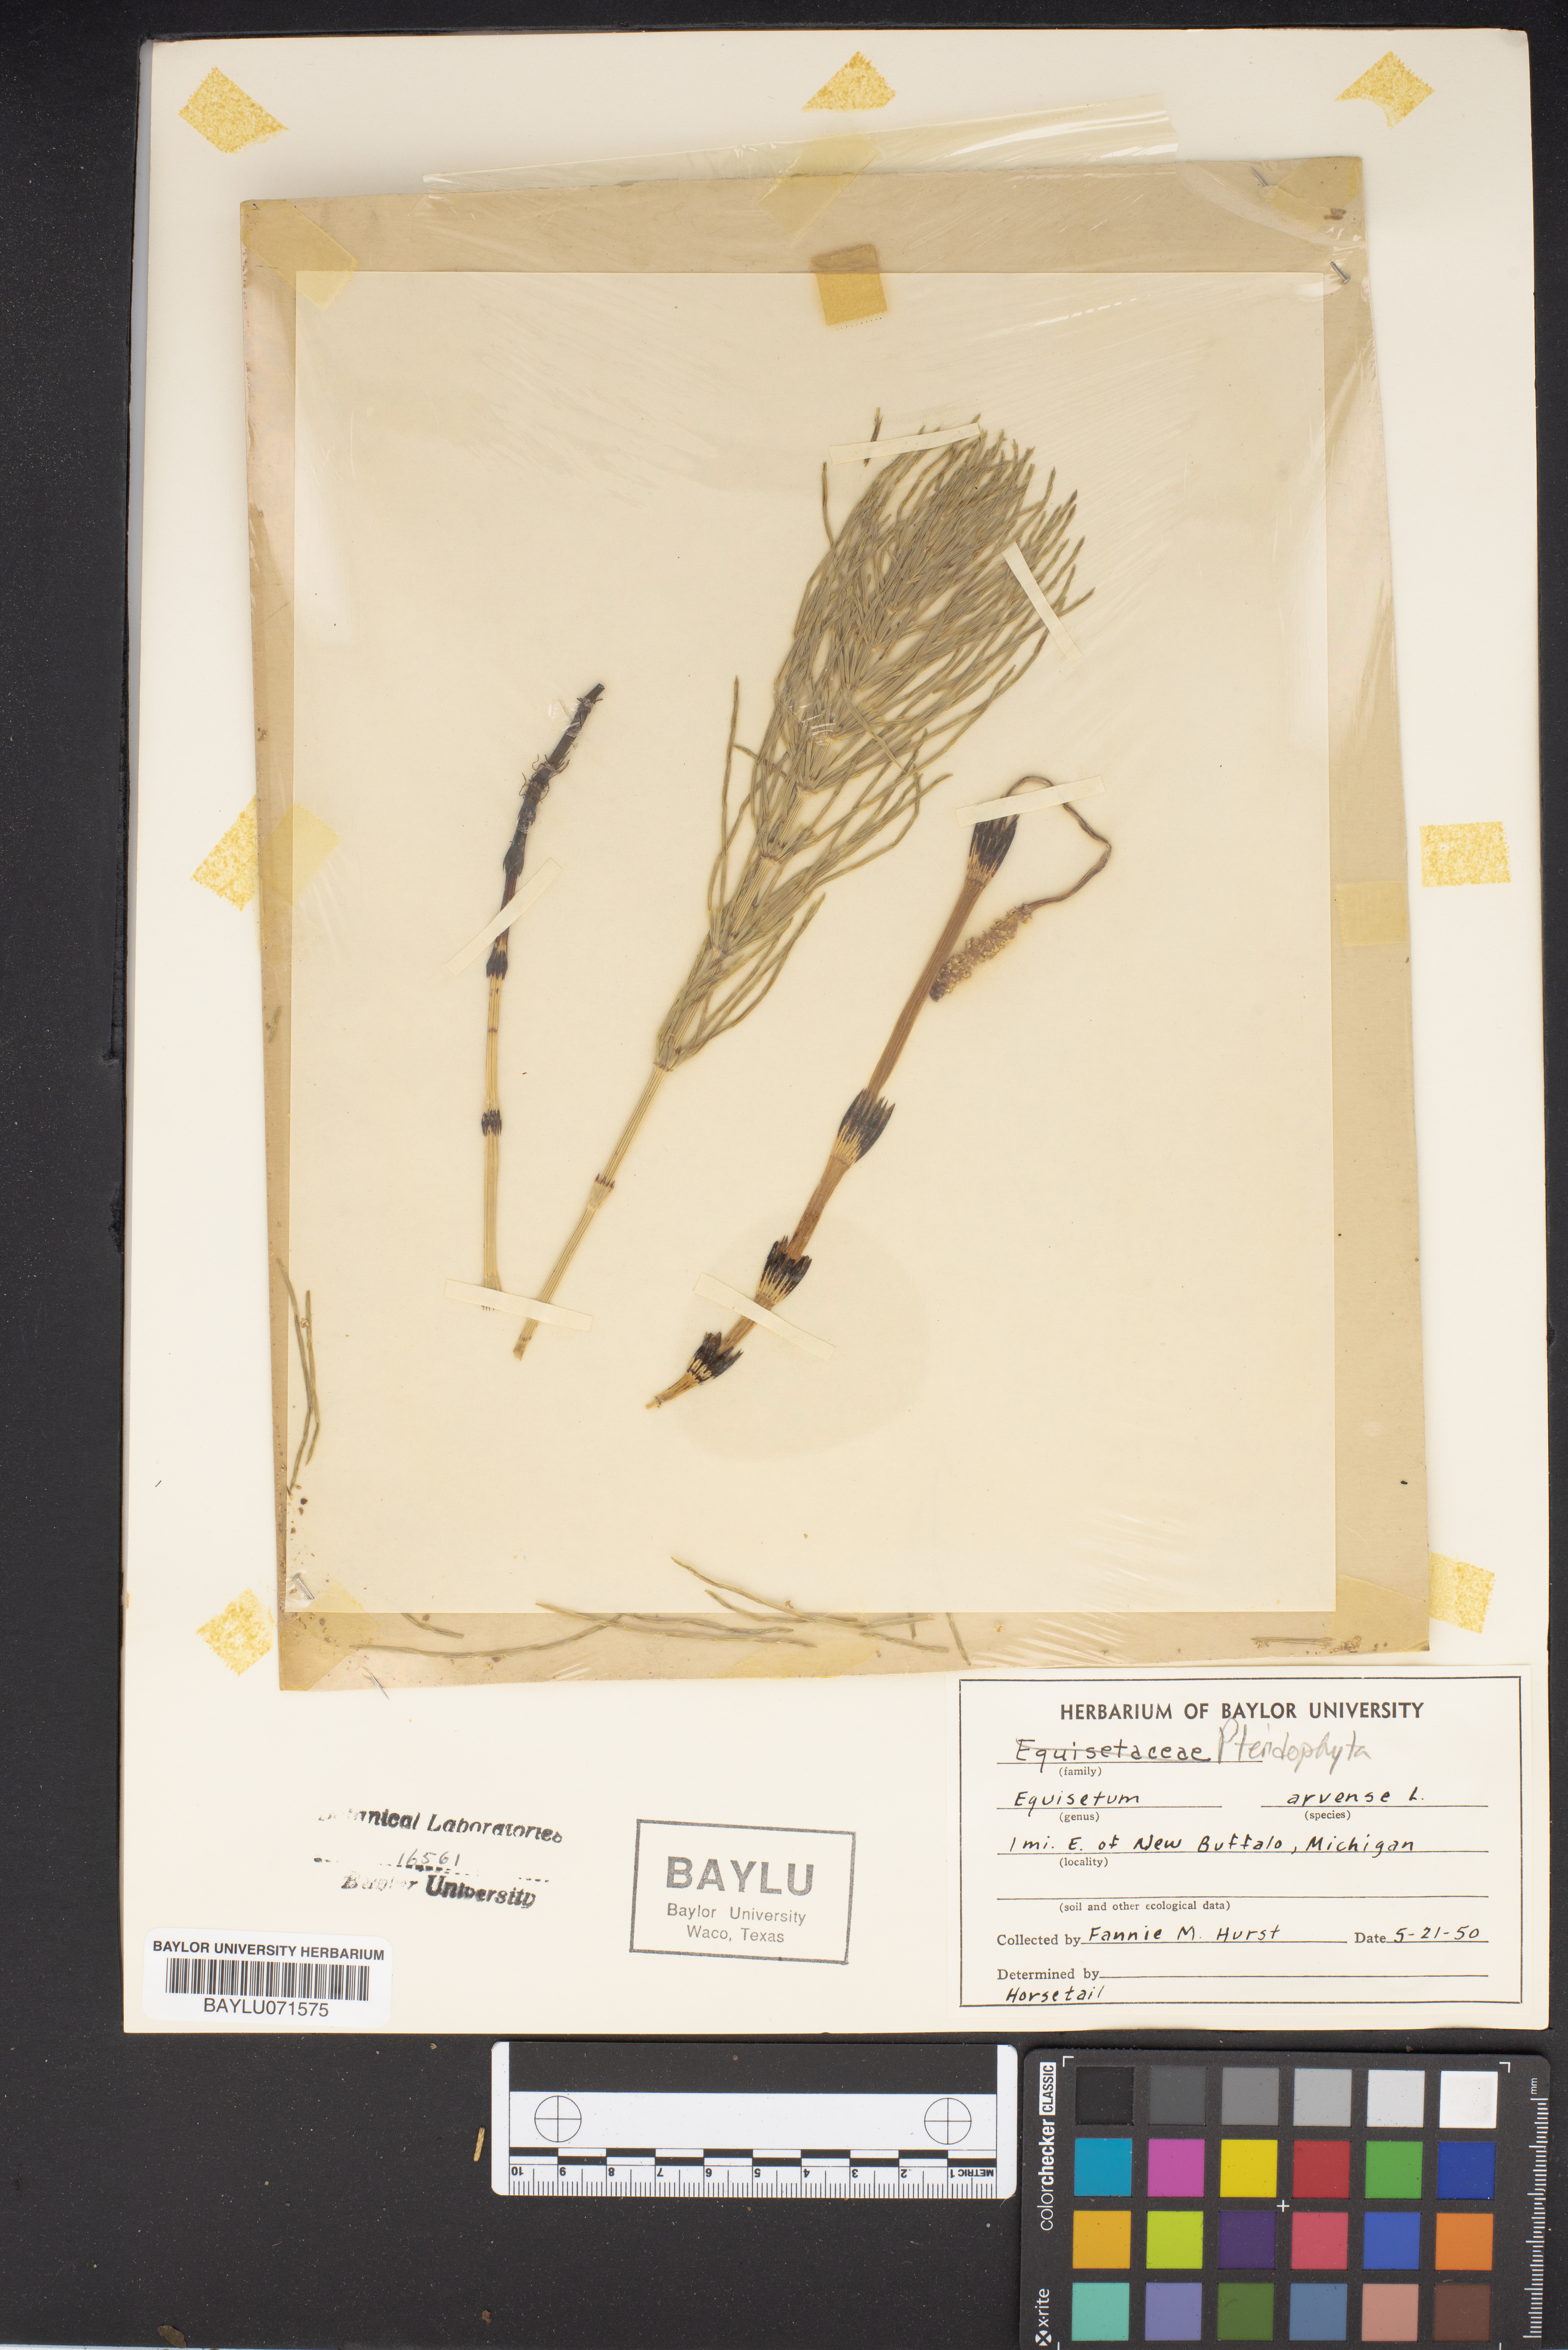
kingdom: Plantae
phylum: Tracheophyta
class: Polypodiopsida
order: Equisetales
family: Equisetaceae
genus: Equisetum
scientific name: Equisetum arvense
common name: Field horsetail
